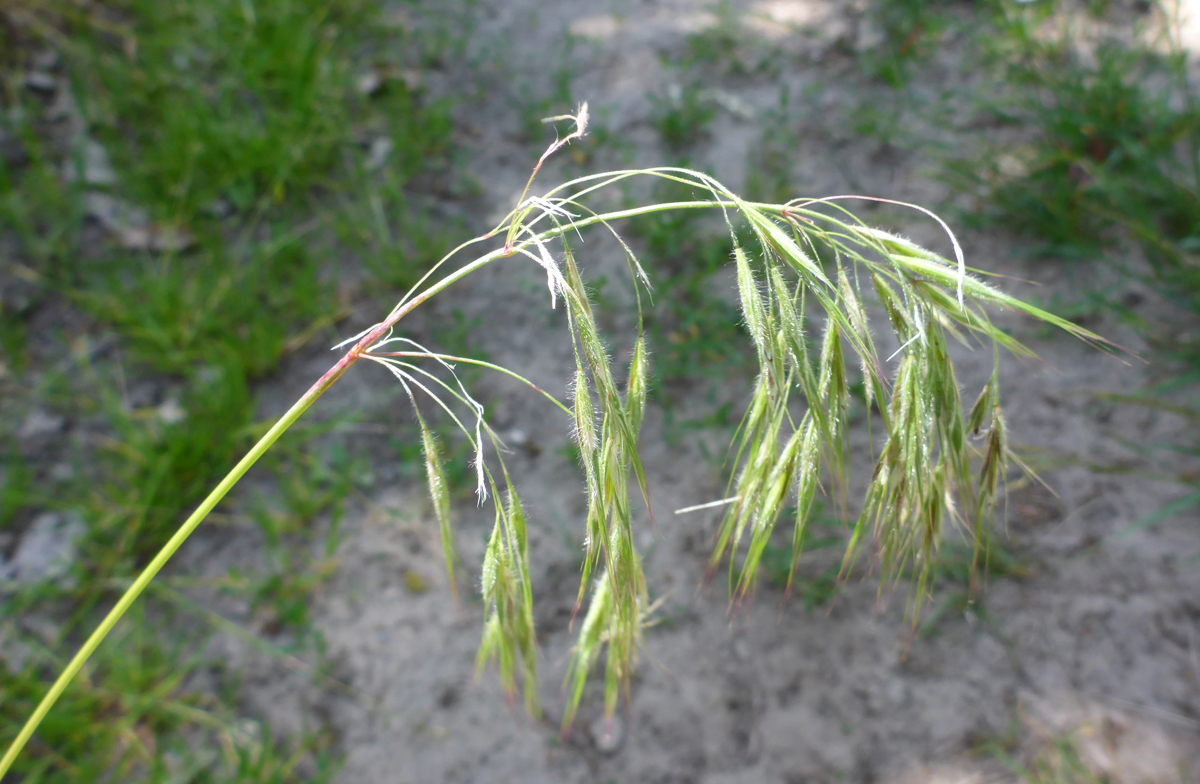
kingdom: Plantae
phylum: Tracheophyta
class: Liliopsida
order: Poales
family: Poaceae
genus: Bromus
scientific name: Bromus tectorum
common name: Cheatgrass
